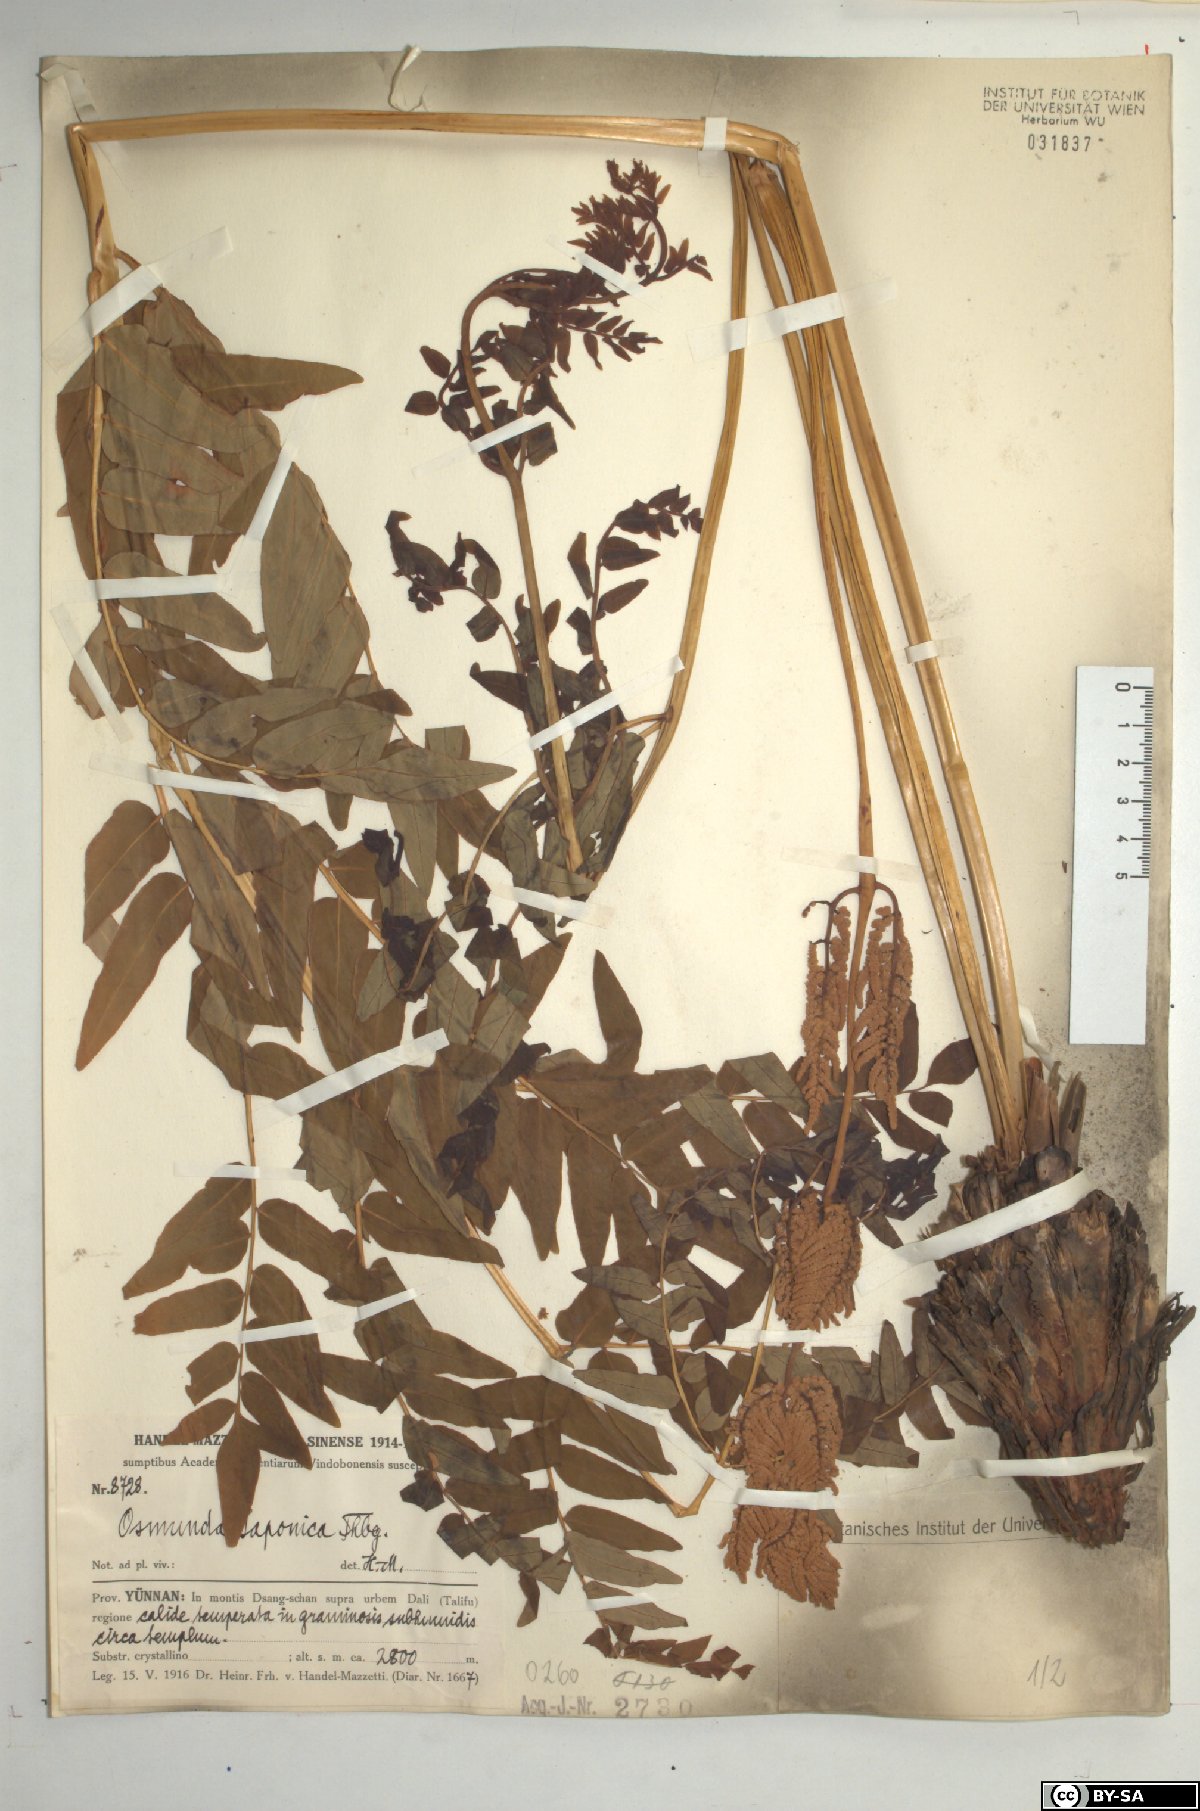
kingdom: Plantae
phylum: Tracheophyta
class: Polypodiopsida
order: Osmundales
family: Osmundaceae
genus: Osmunda
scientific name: Osmunda japonica
